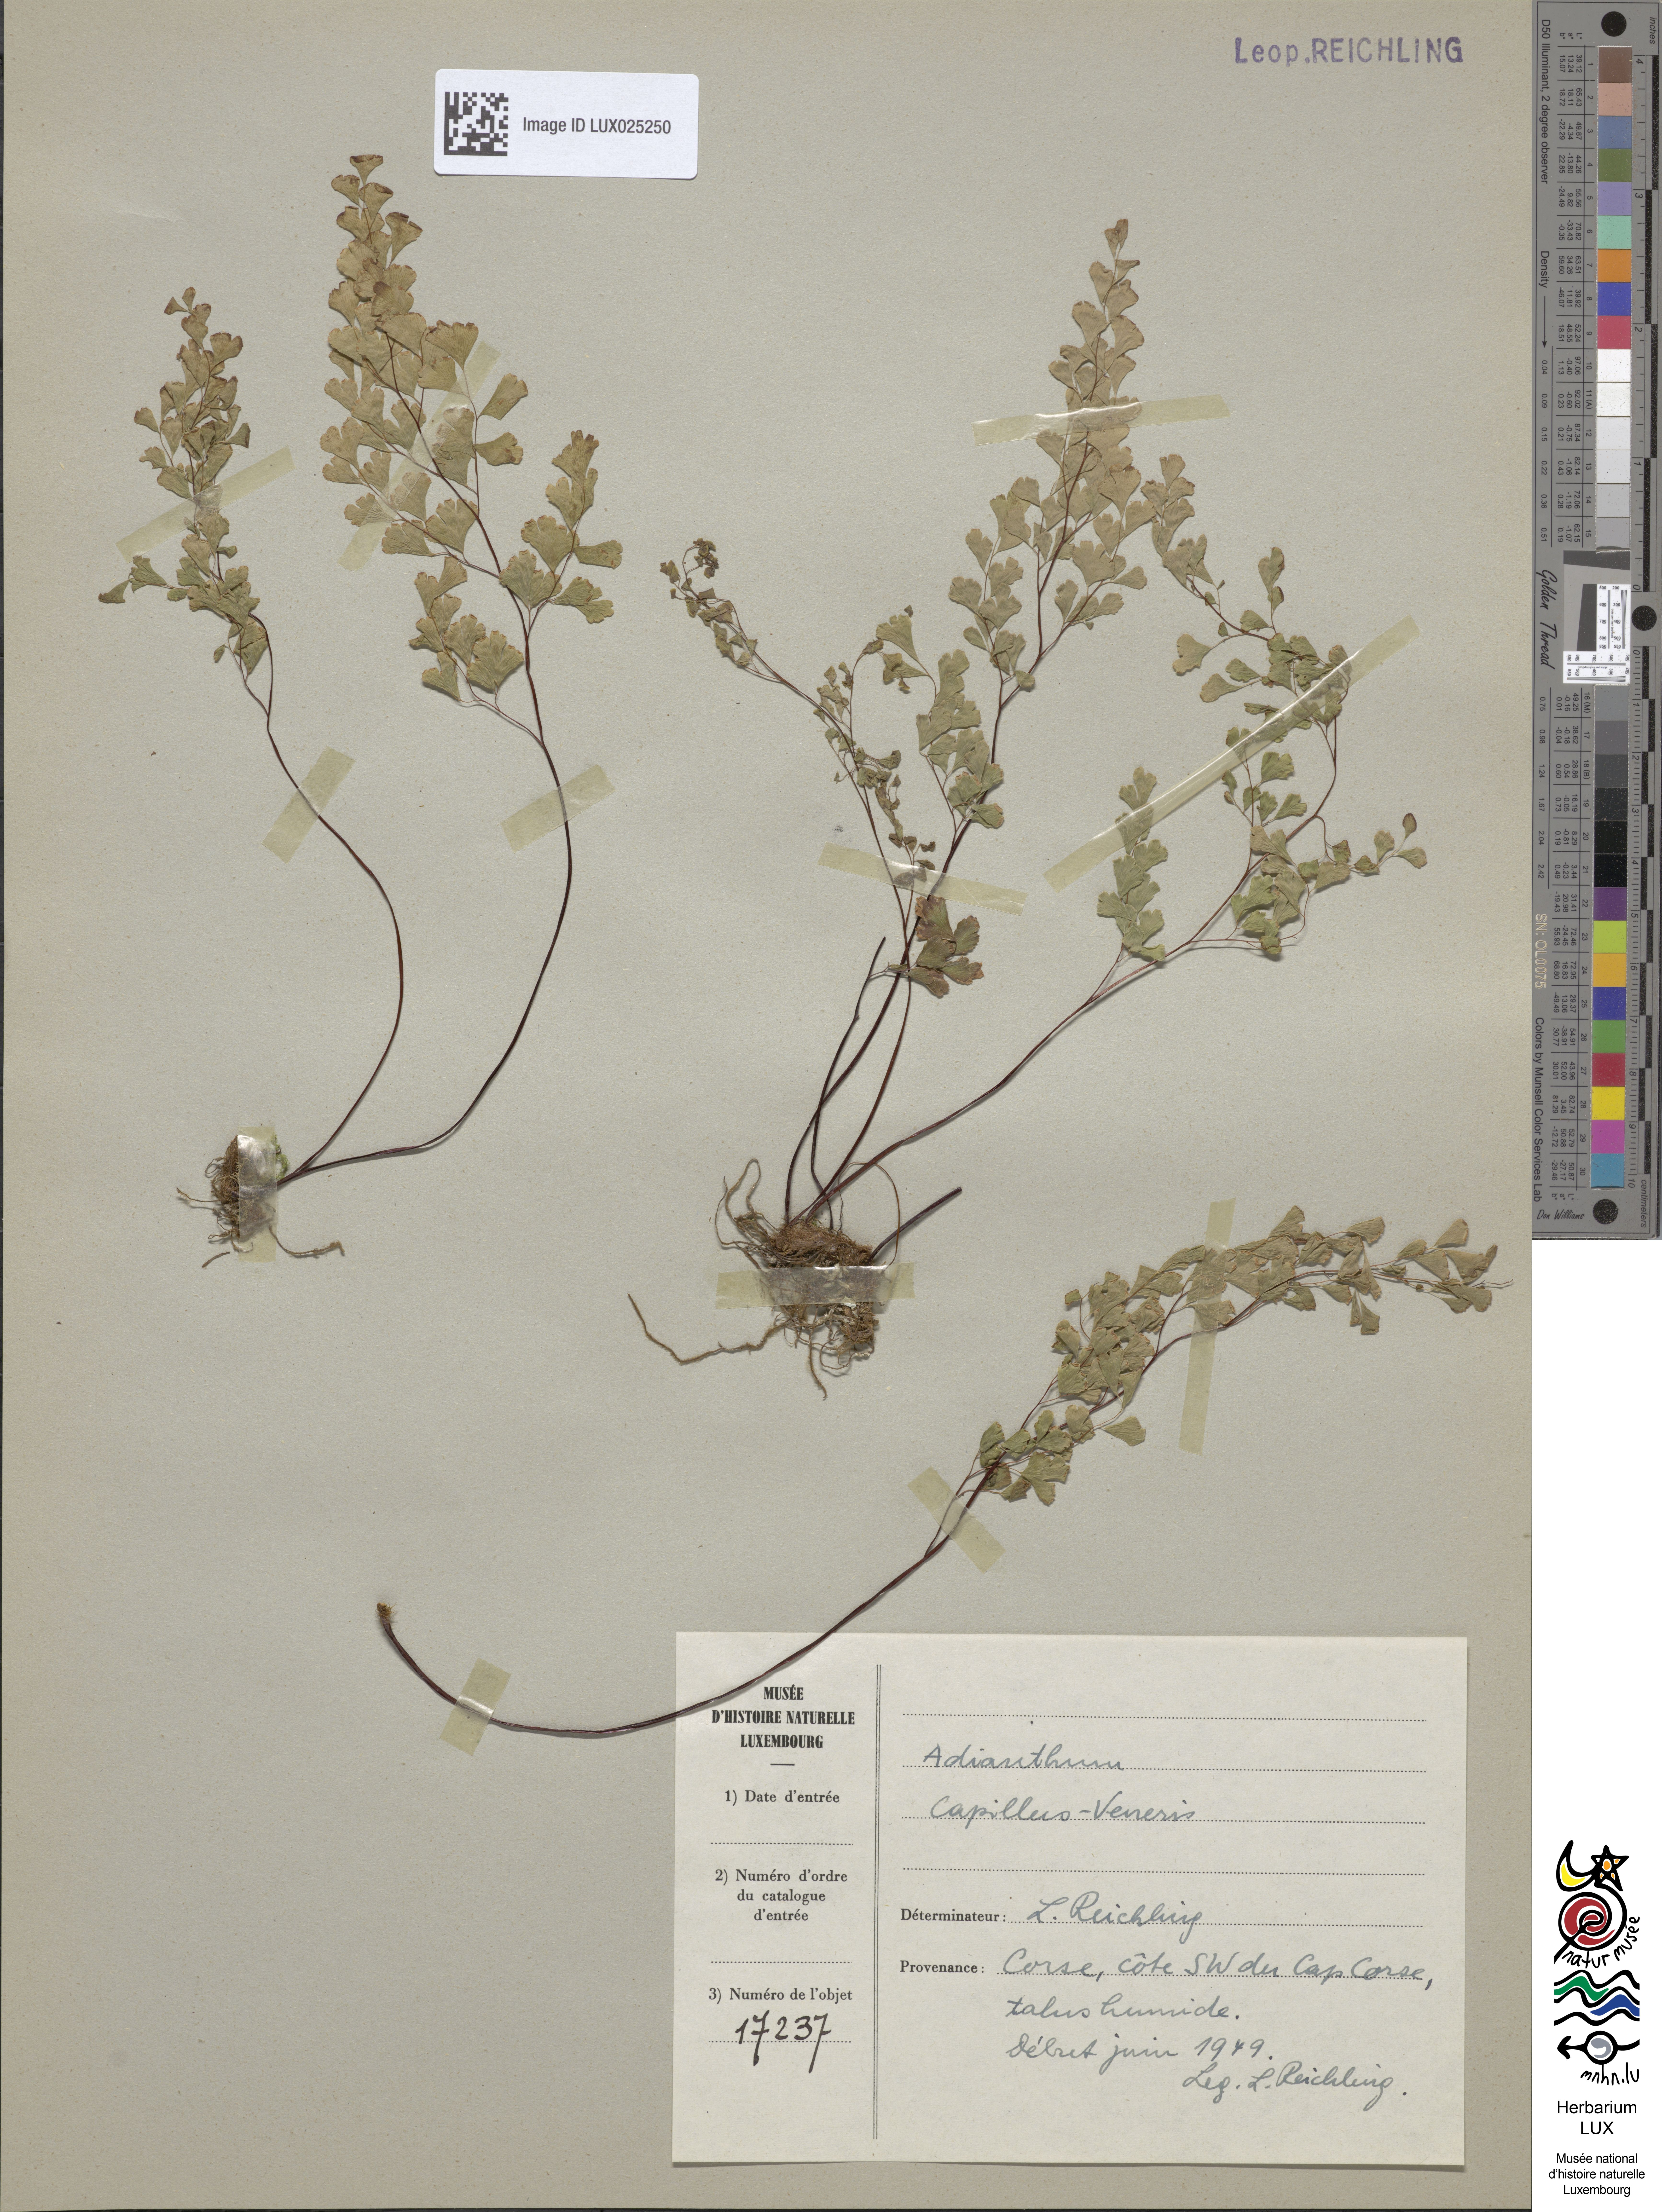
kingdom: Plantae
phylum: Tracheophyta
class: Polypodiopsida
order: Polypodiales
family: Pteridaceae
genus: Adiantum
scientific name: Adiantum capillus-veneris
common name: Maidenhair fern
